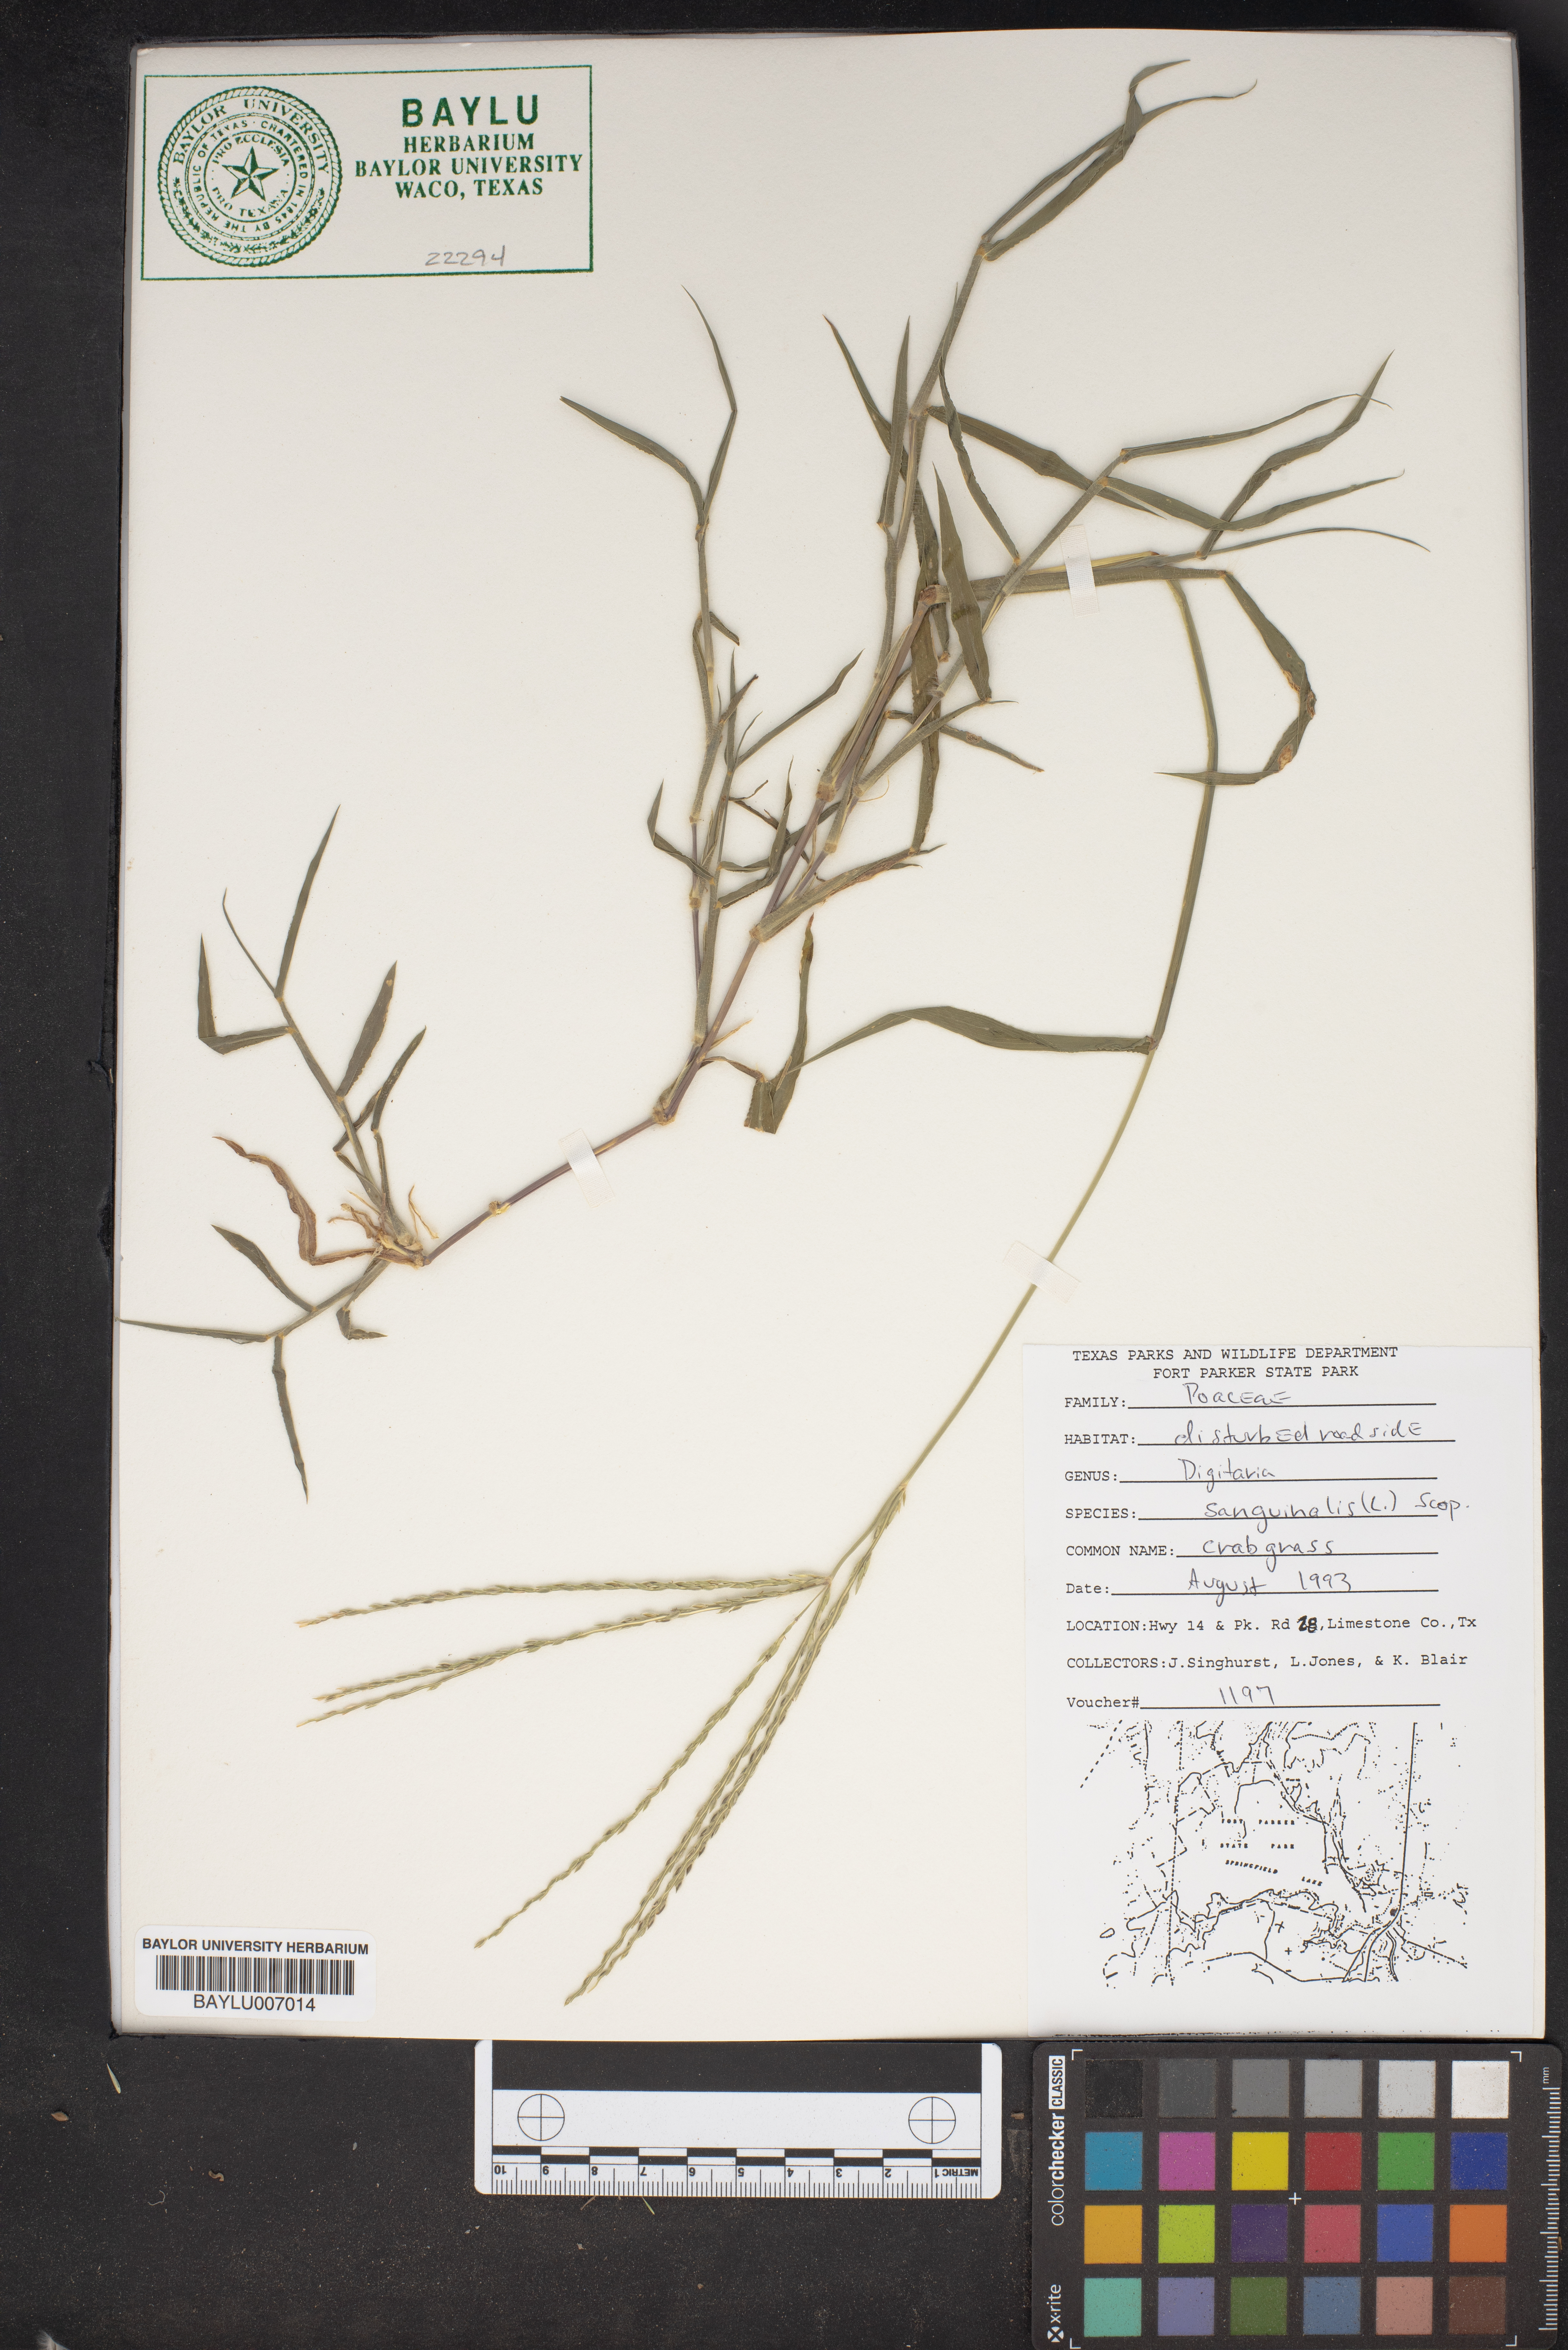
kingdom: Plantae
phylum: Tracheophyta
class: Liliopsida
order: Poales
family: Poaceae
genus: Digitaria
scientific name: Digitaria sanguinalis
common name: Hairy crabgrass
